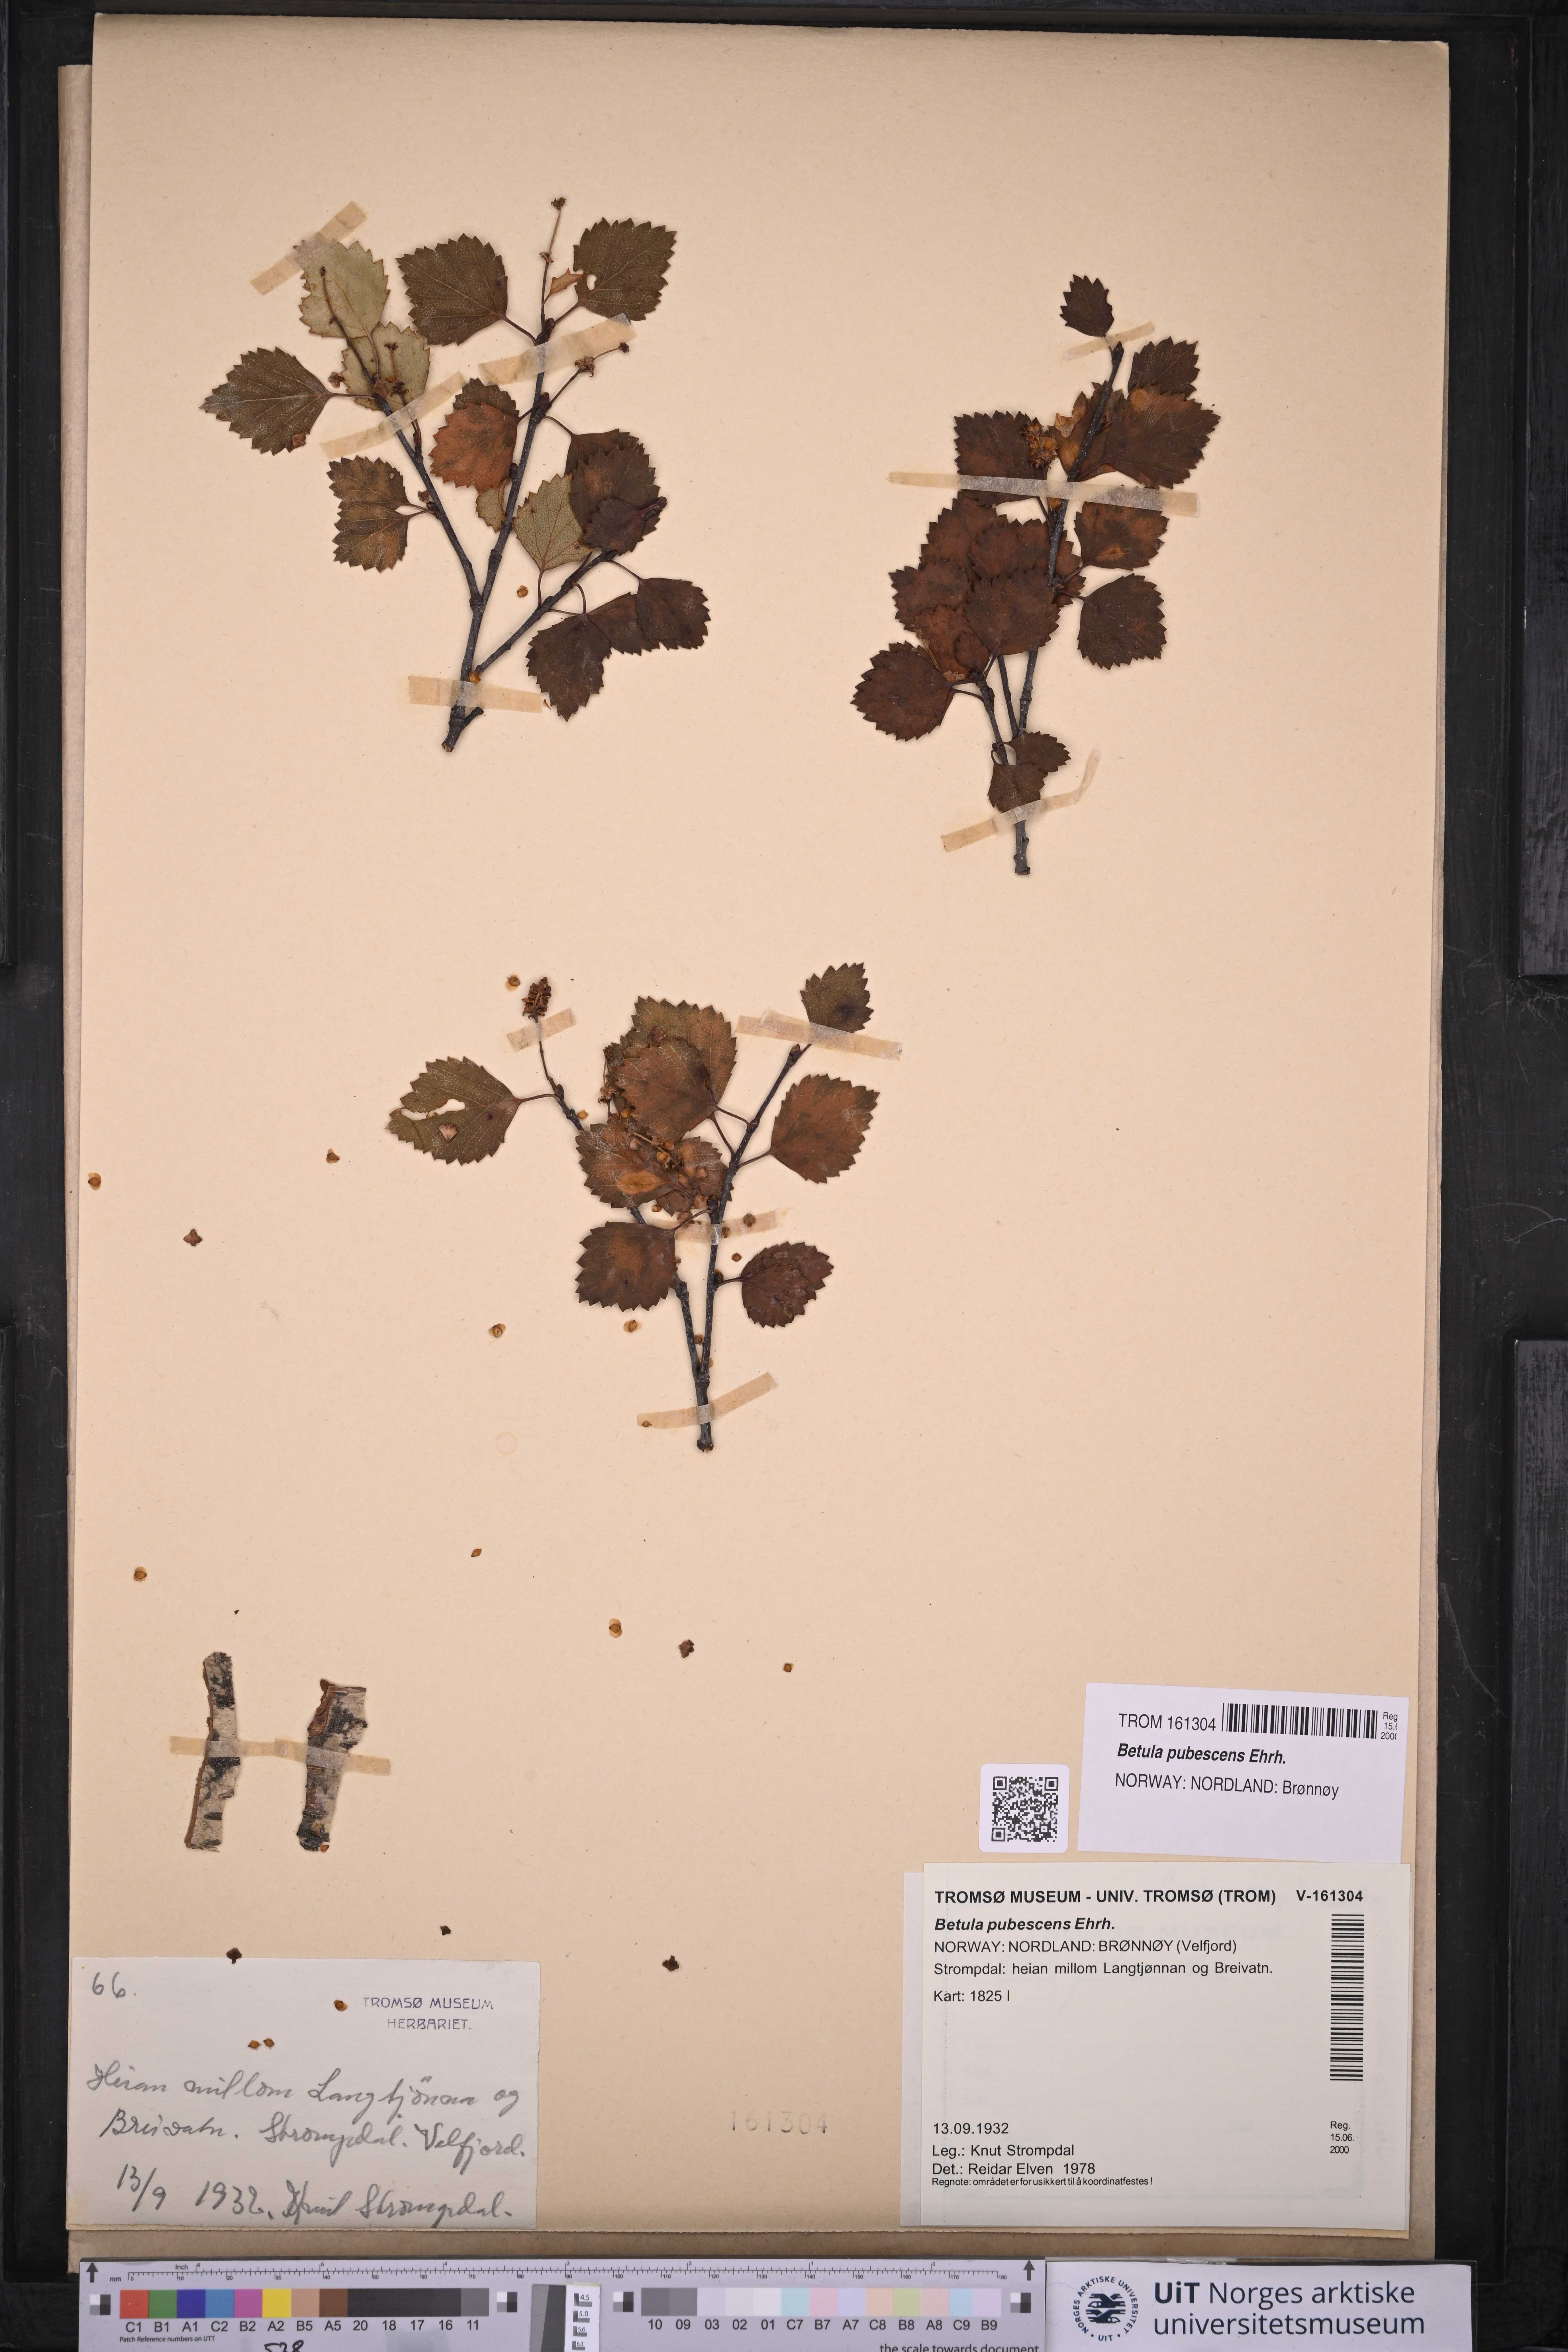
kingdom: Plantae
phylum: Tracheophyta
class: Magnoliopsida
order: Fagales
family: Betulaceae
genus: Betula
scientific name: Betula pubescens
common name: Downy birch
